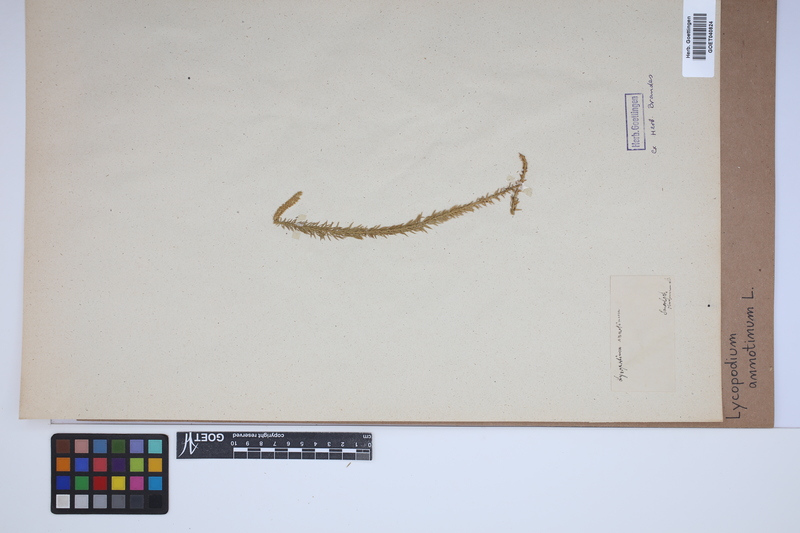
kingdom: Plantae
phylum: Tracheophyta
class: Lycopodiopsida
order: Lycopodiales
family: Lycopodiaceae
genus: Spinulum
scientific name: Spinulum annotinum
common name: Interrupted club-moss
